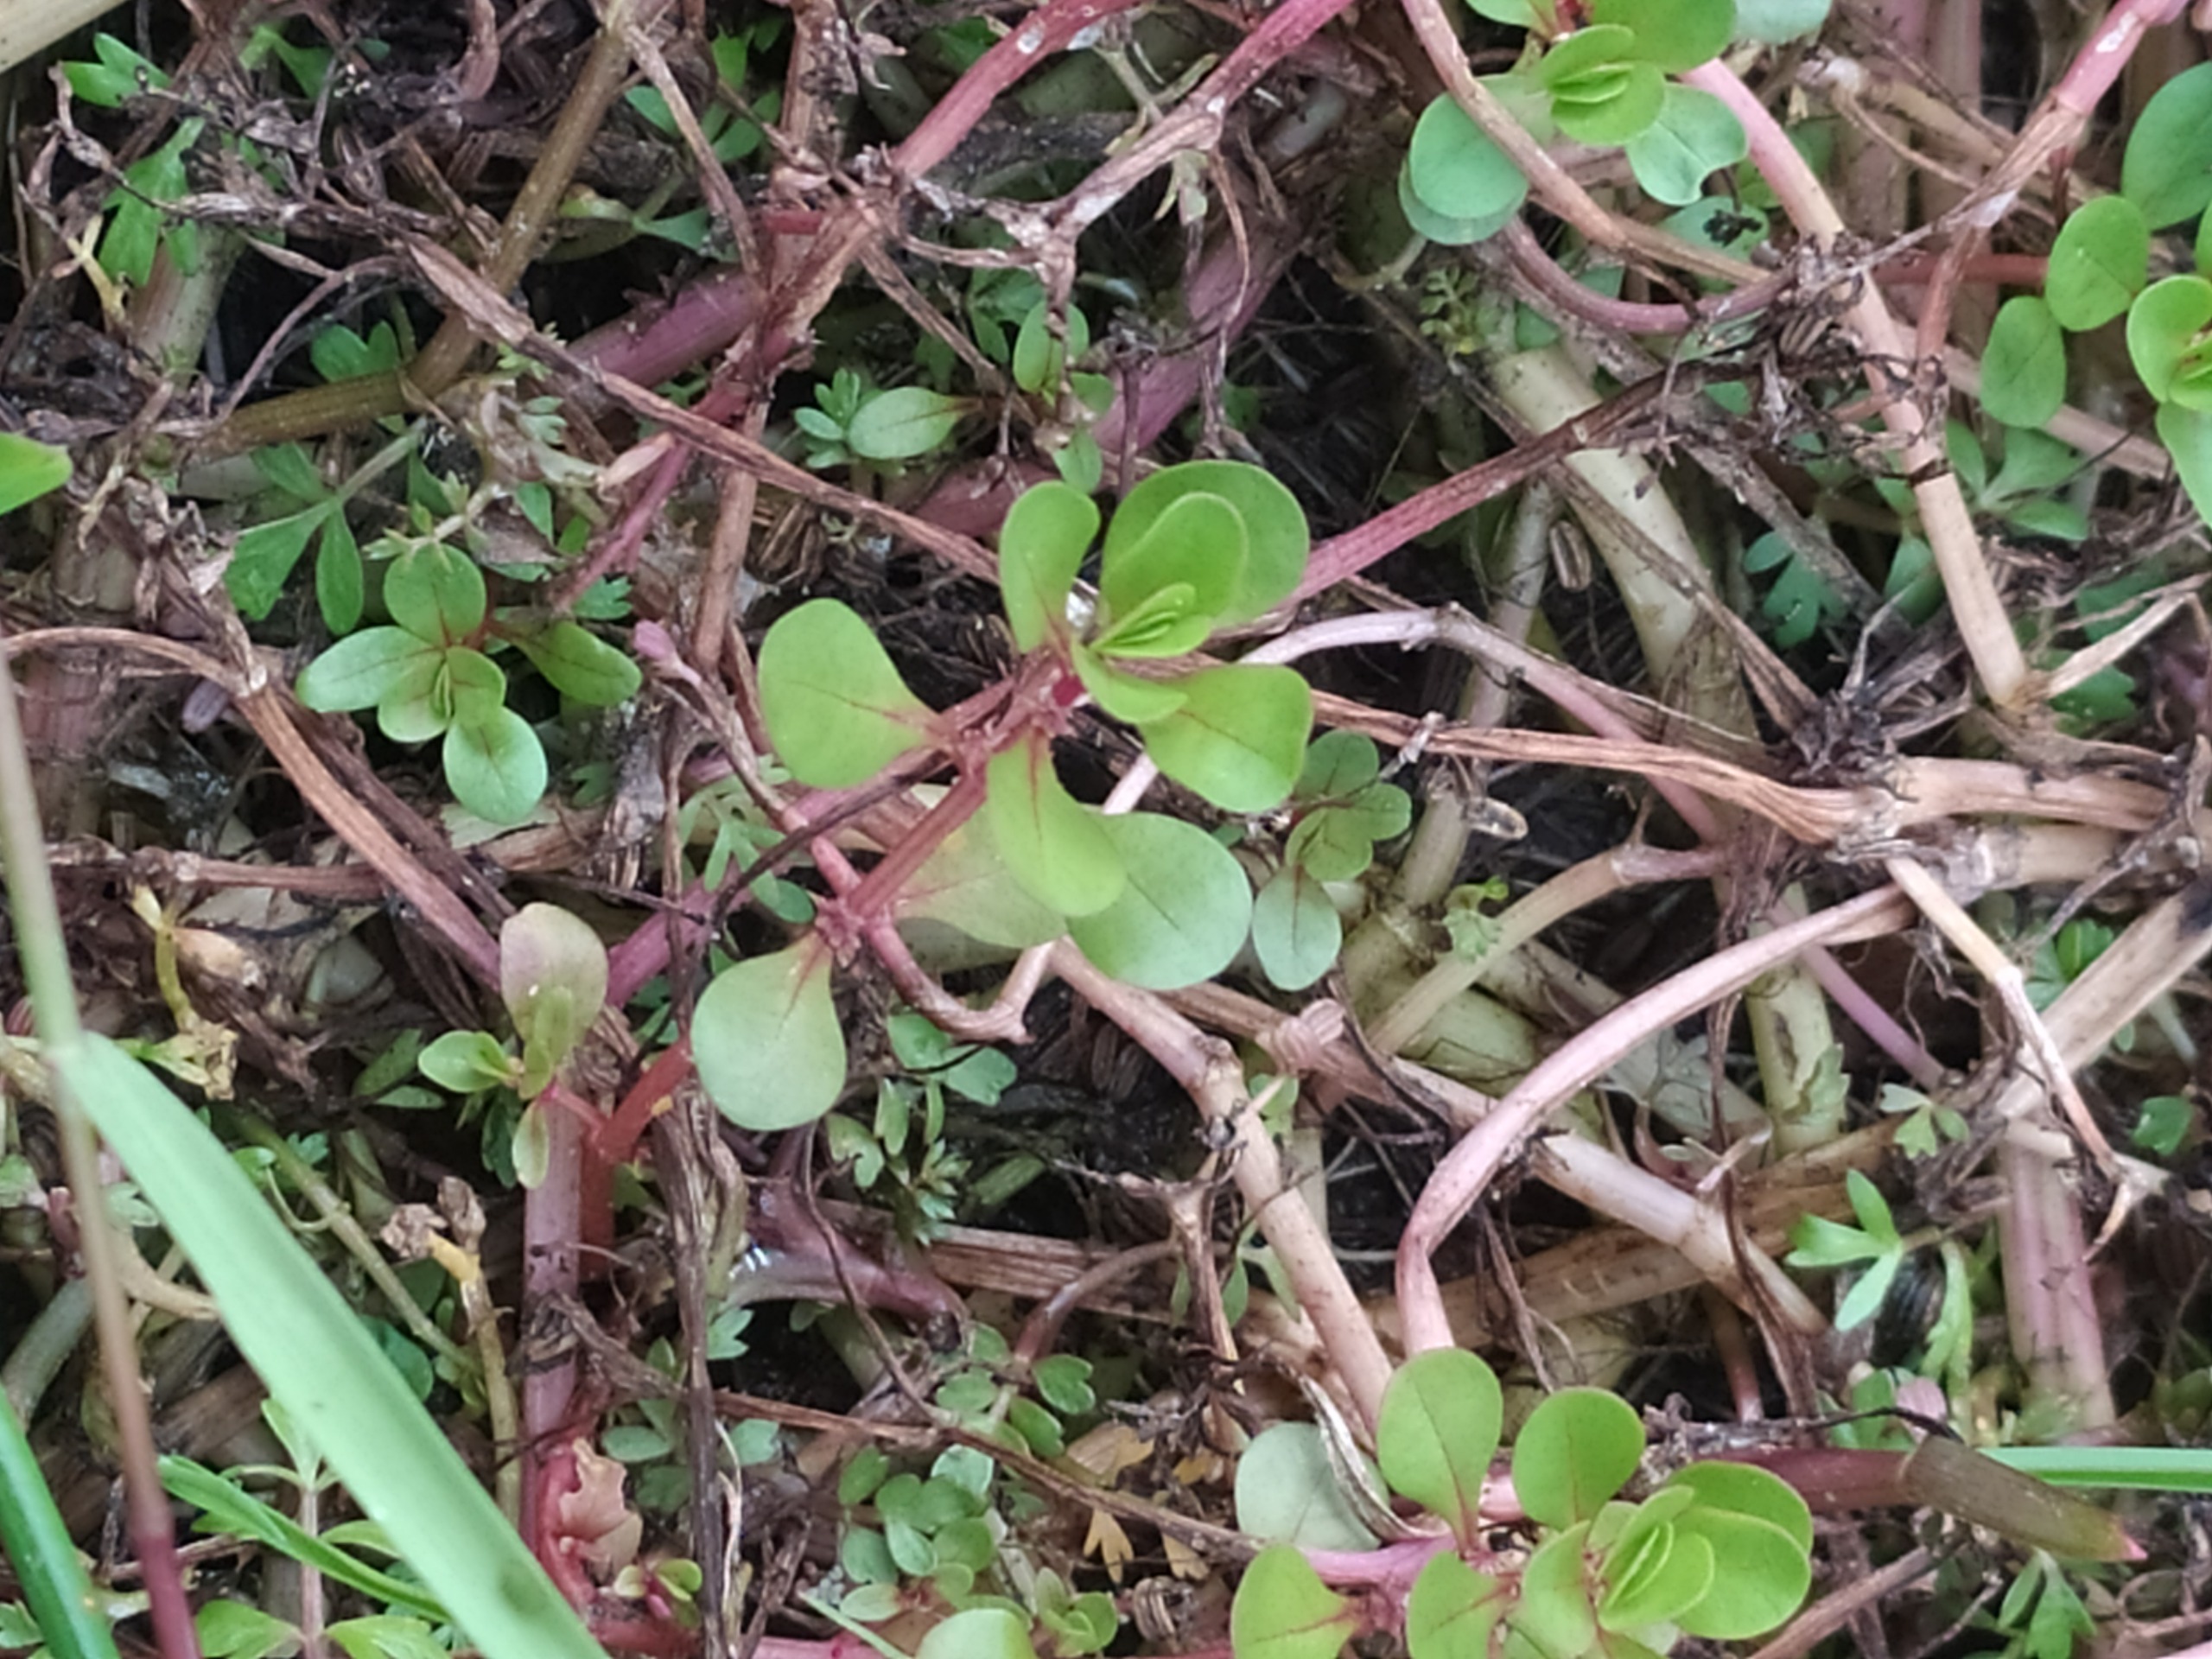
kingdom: Plantae
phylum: Tracheophyta
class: Magnoliopsida
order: Myrtales
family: Lythraceae
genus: Lythrum
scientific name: Lythrum portula
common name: Vandportulak
